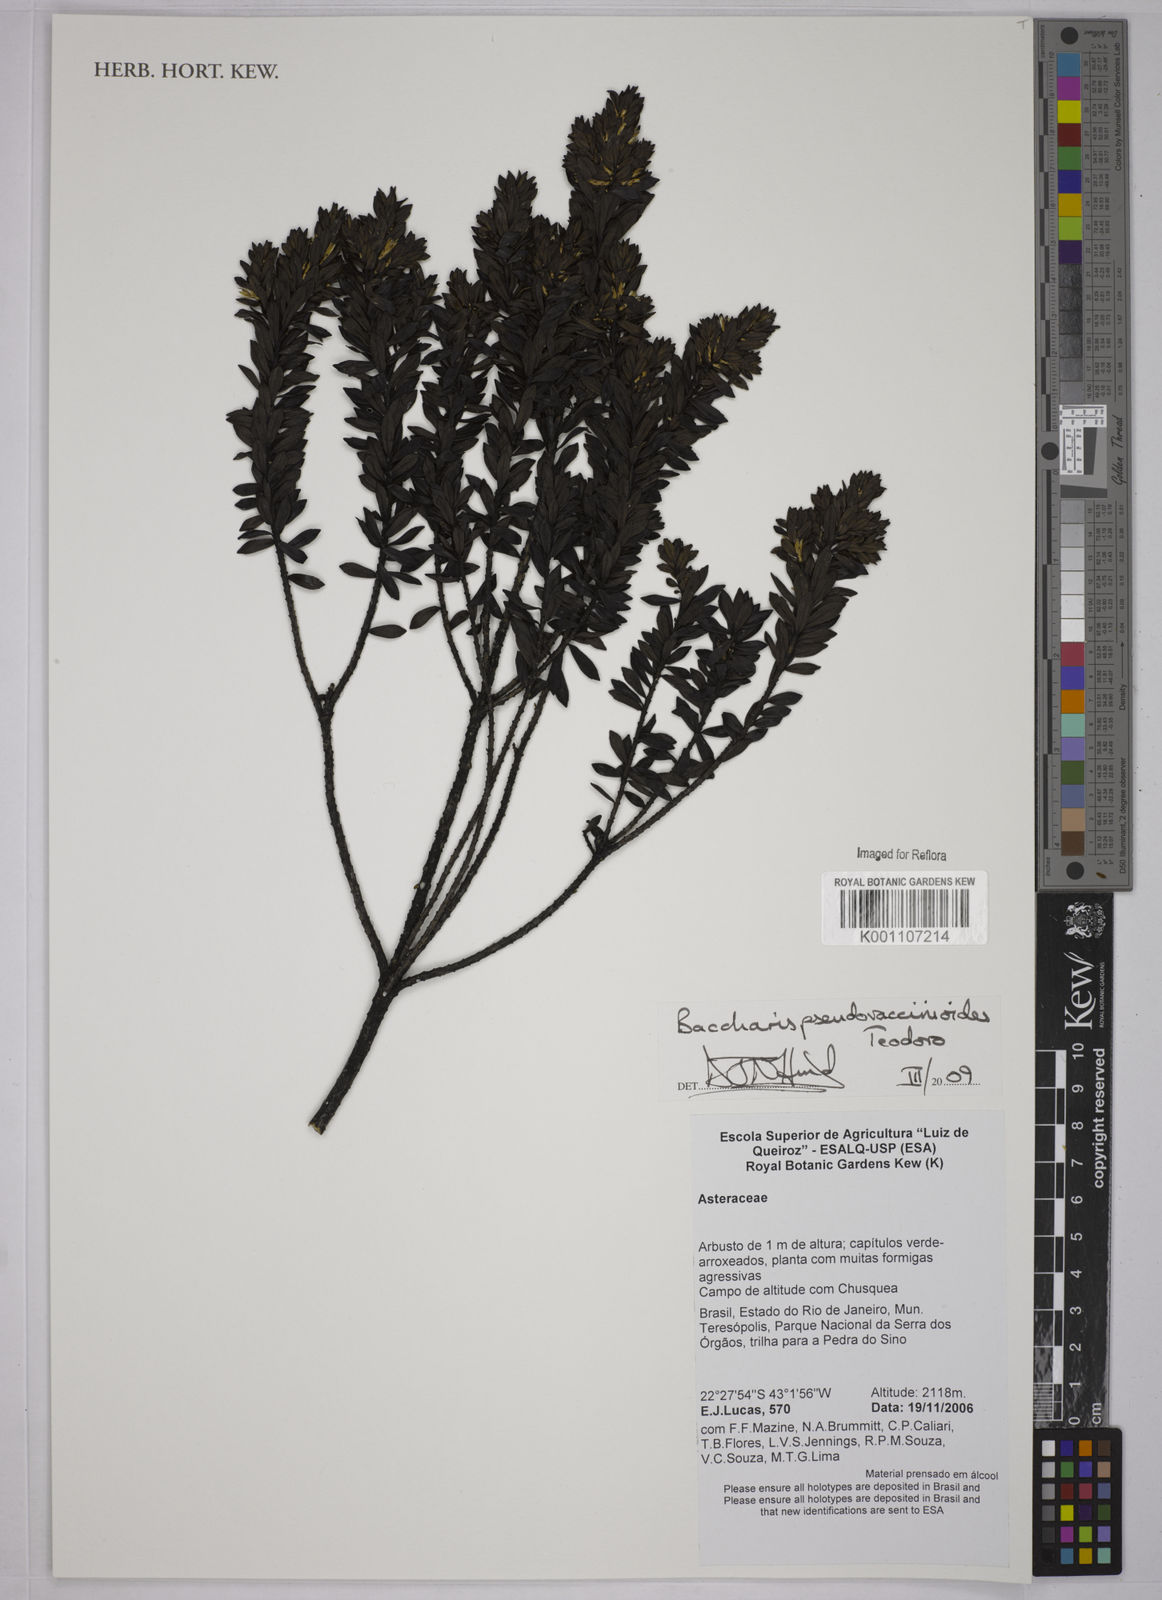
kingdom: Plantae
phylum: Tracheophyta
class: Magnoliopsida
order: Asterales
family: Asteraceae
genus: Baccharis
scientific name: Baccharis pseudovaccinioides
